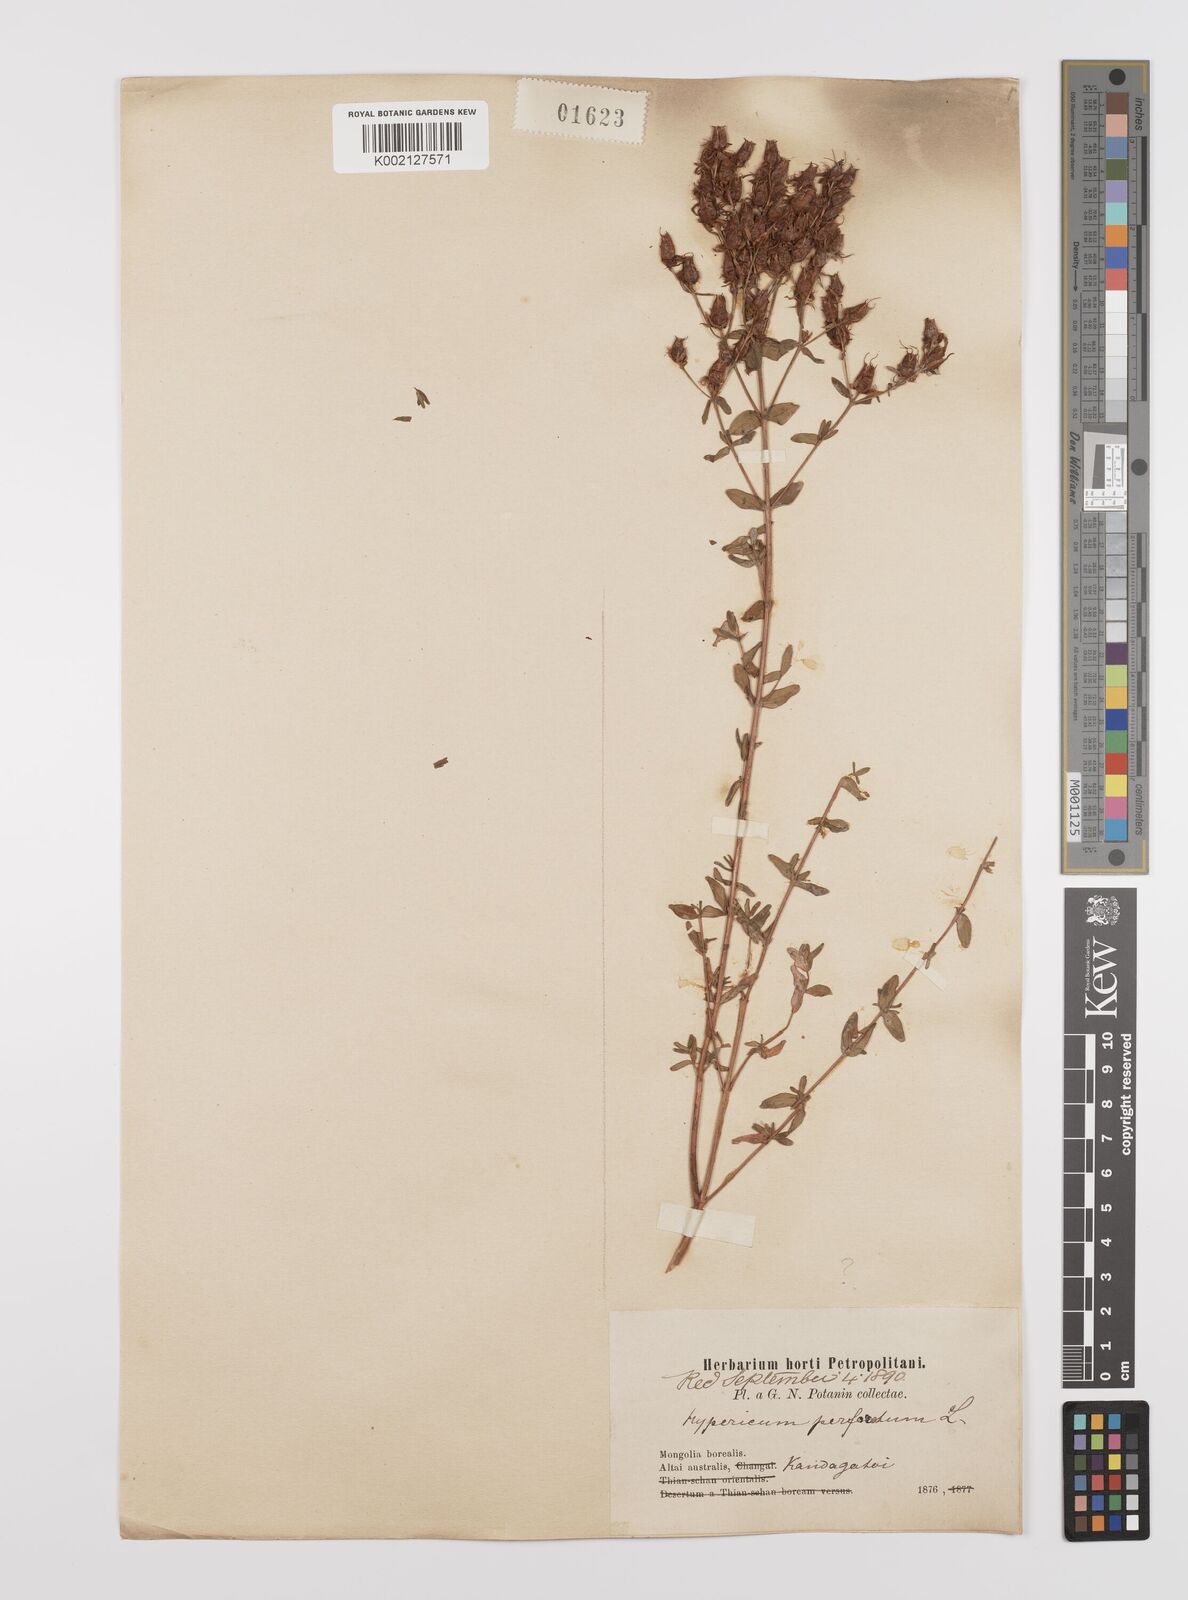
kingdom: Plantae
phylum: Tracheophyta
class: Magnoliopsida
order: Malpighiales
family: Hypericaceae
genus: Hypericum
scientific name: Hypericum perforatum
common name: Common st. johnswort
